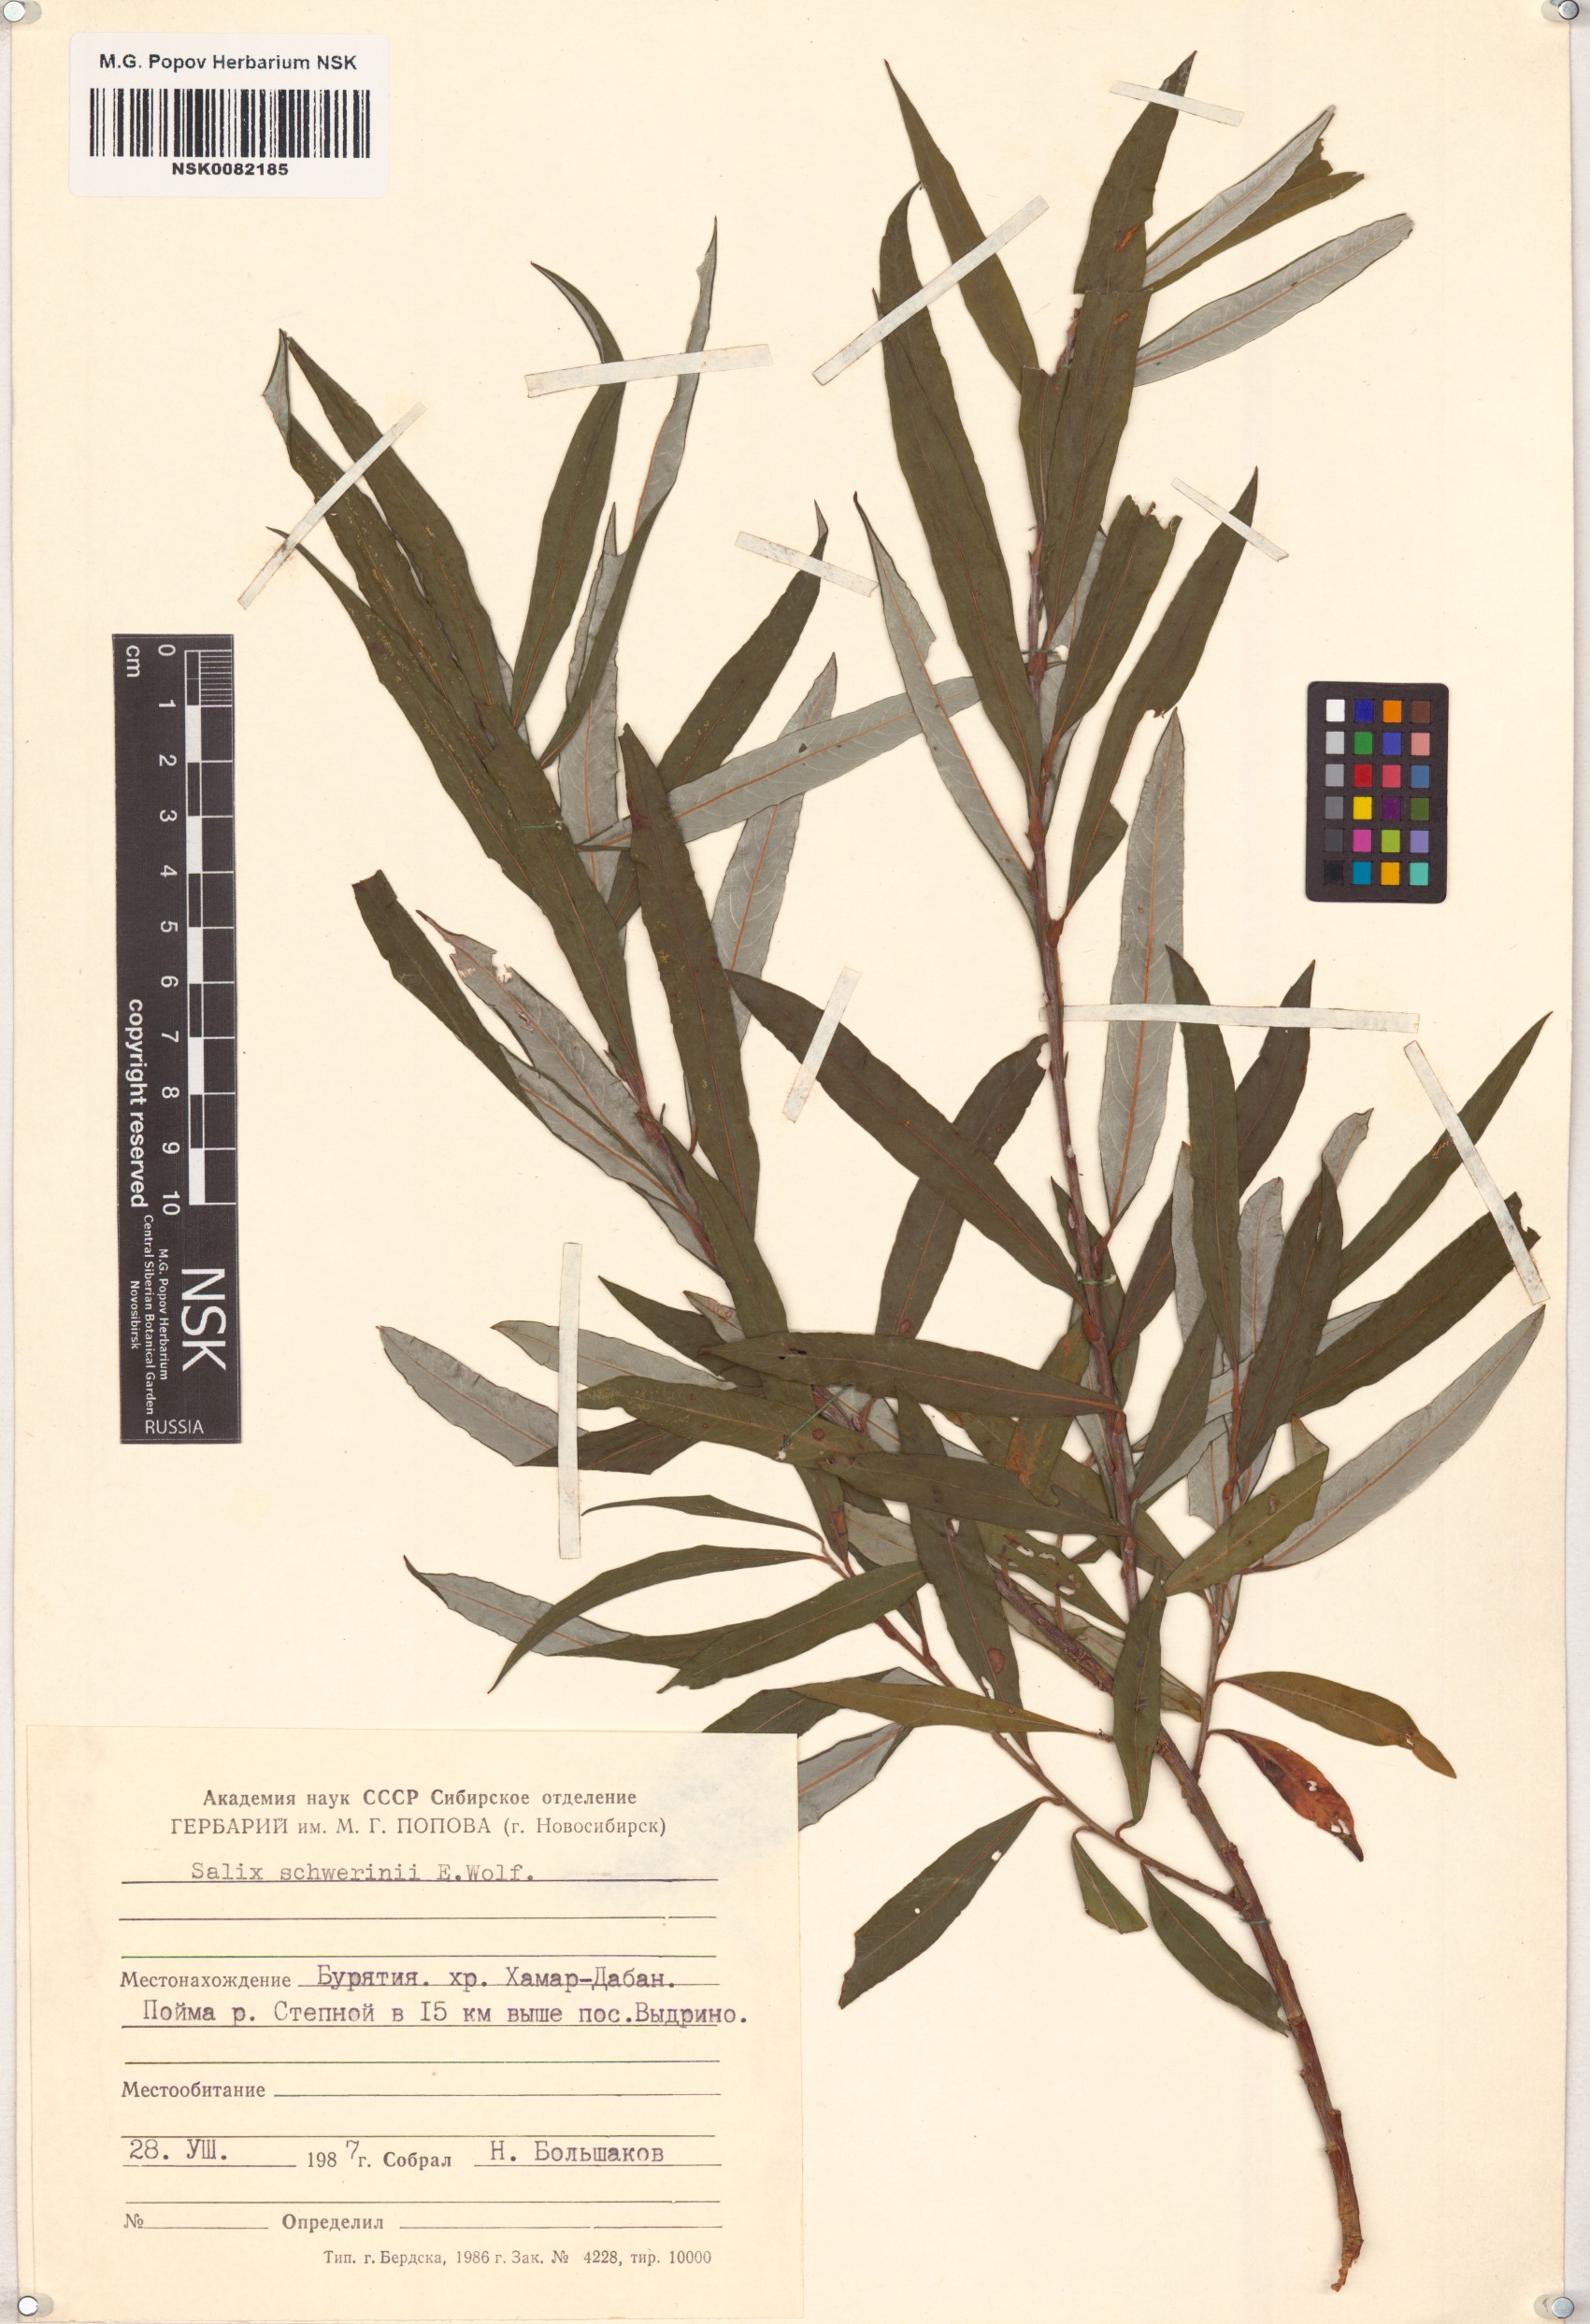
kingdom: Plantae
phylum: Tracheophyta
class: Magnoliopsida
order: Malpighiales
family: Salicaceae
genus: Salix
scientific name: Salix schwerinii
